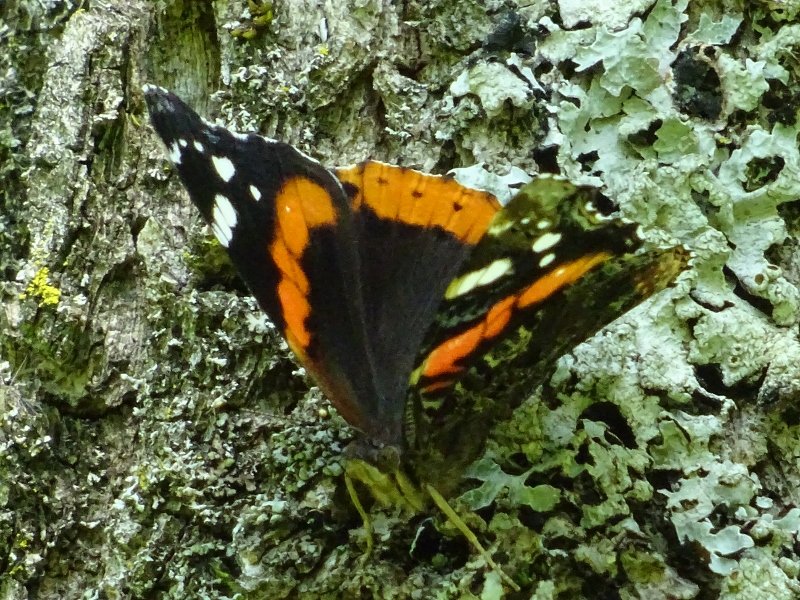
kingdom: Animalia
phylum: Arthropoda
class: Insecta
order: Lepidoptera
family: Nymphalidae
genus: Vanessa
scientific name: Vanessa atalanta
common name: Red Admiral
